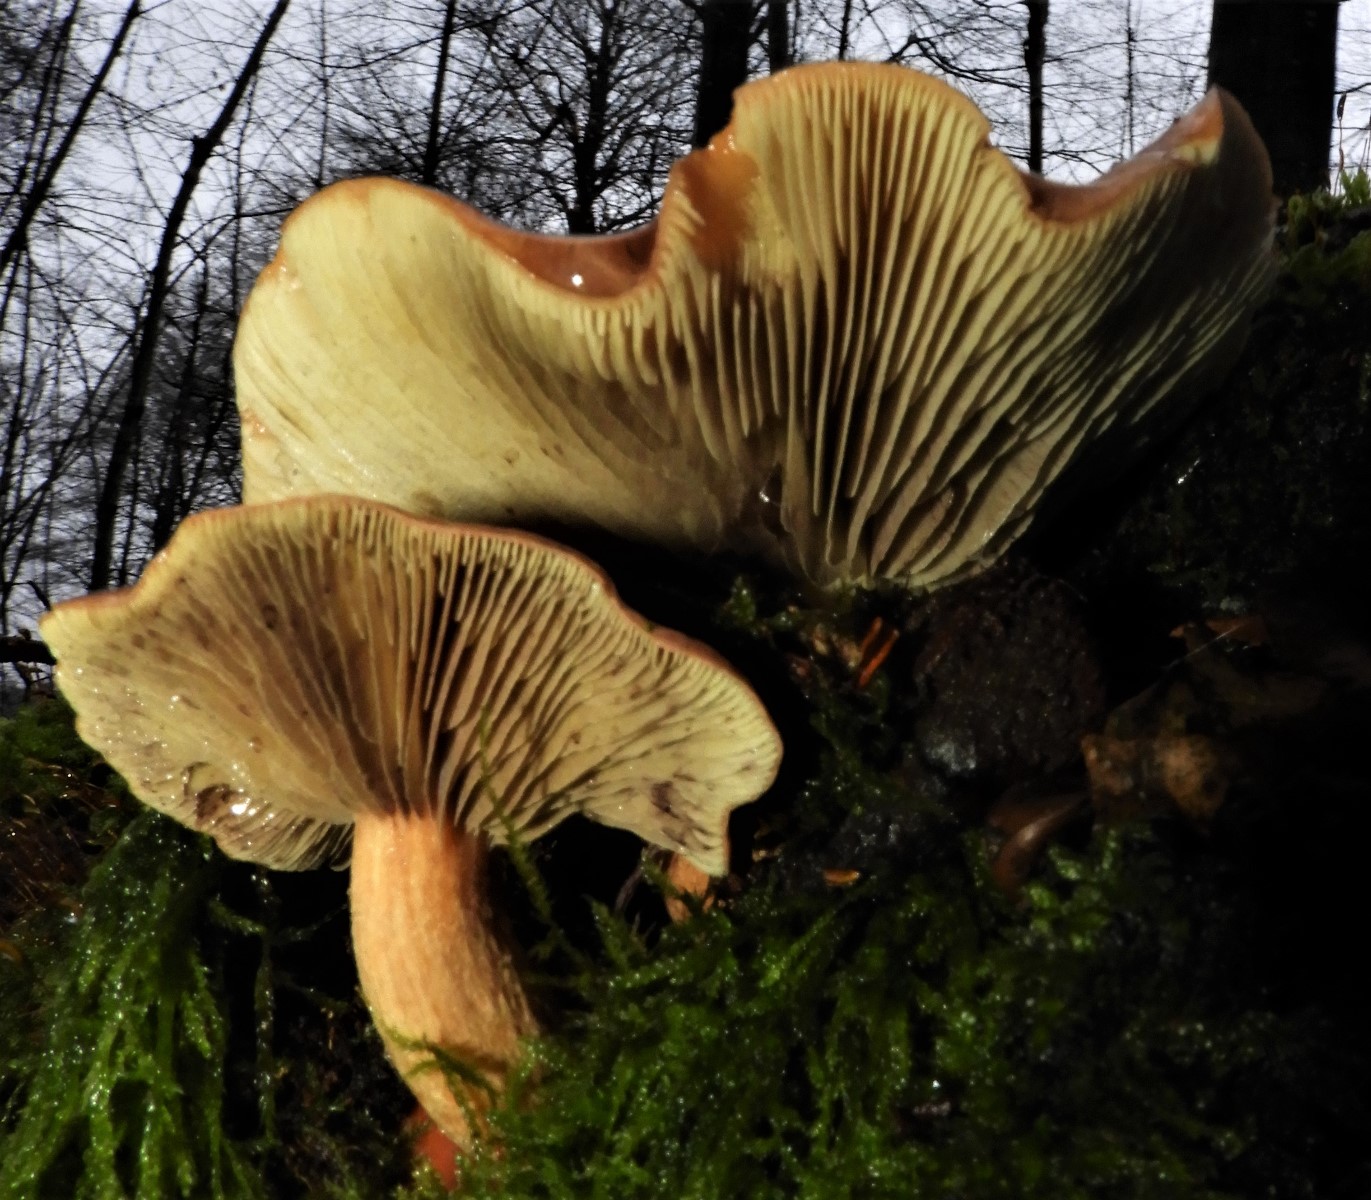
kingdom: Fungi
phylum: Basidiomycota
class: Agaricomycetes
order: Agaricales
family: Strophariaceae
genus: Hypholoma
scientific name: Hypholoma lateritium
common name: teglrød svovlhat
